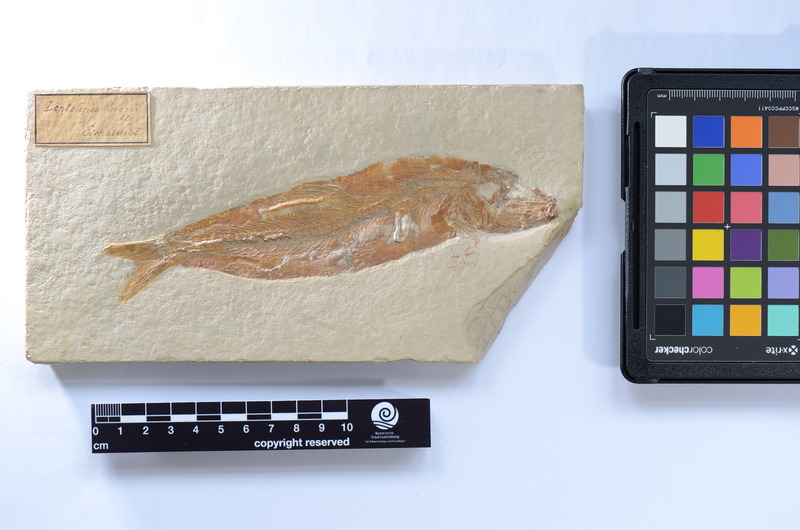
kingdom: Animalia
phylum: Chordata
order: Elopiformes
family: Anaethalionidae
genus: Anaethalion
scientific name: Anaethalion knorri
